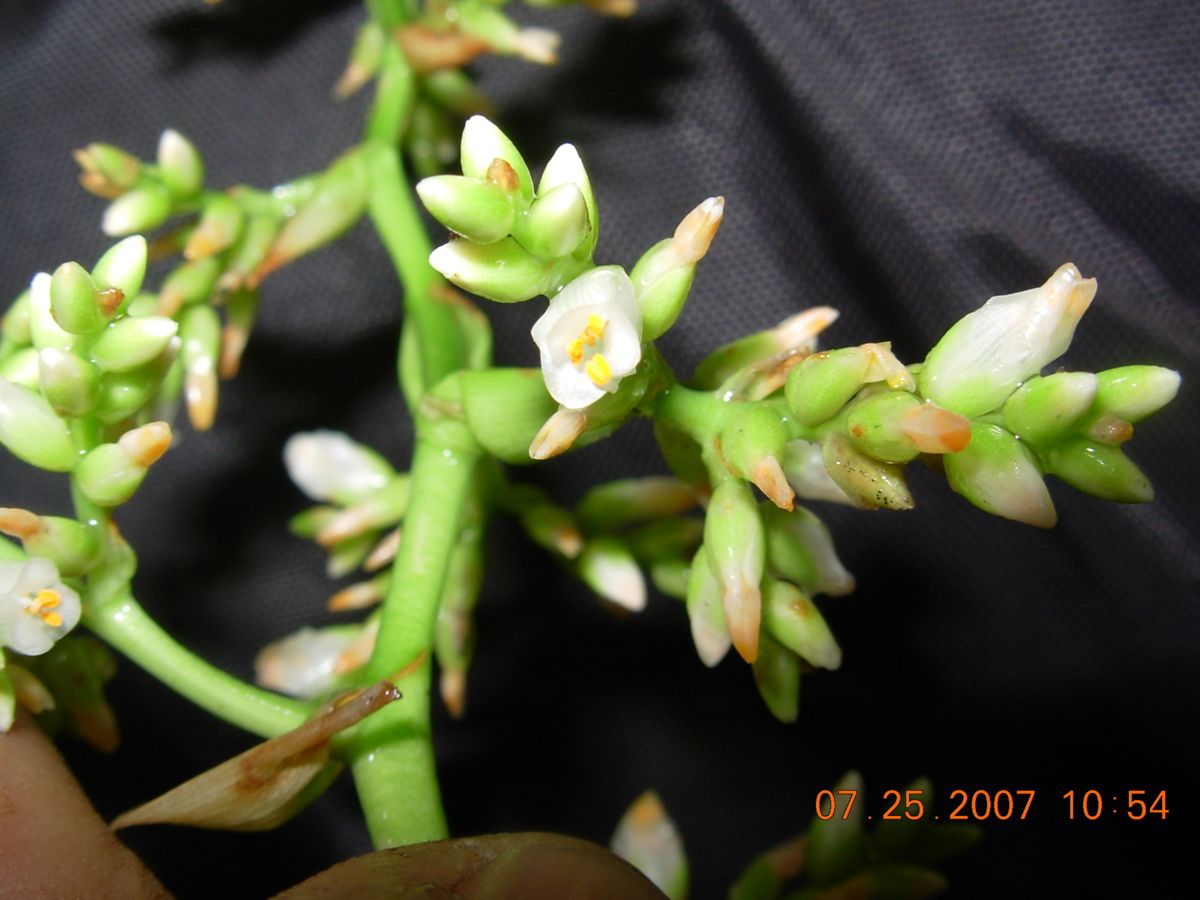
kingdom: Plantae
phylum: Tracheophyta
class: Liliopsida
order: Poales
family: Bromeliaceae
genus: Catopsis
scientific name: Catopsis montana
